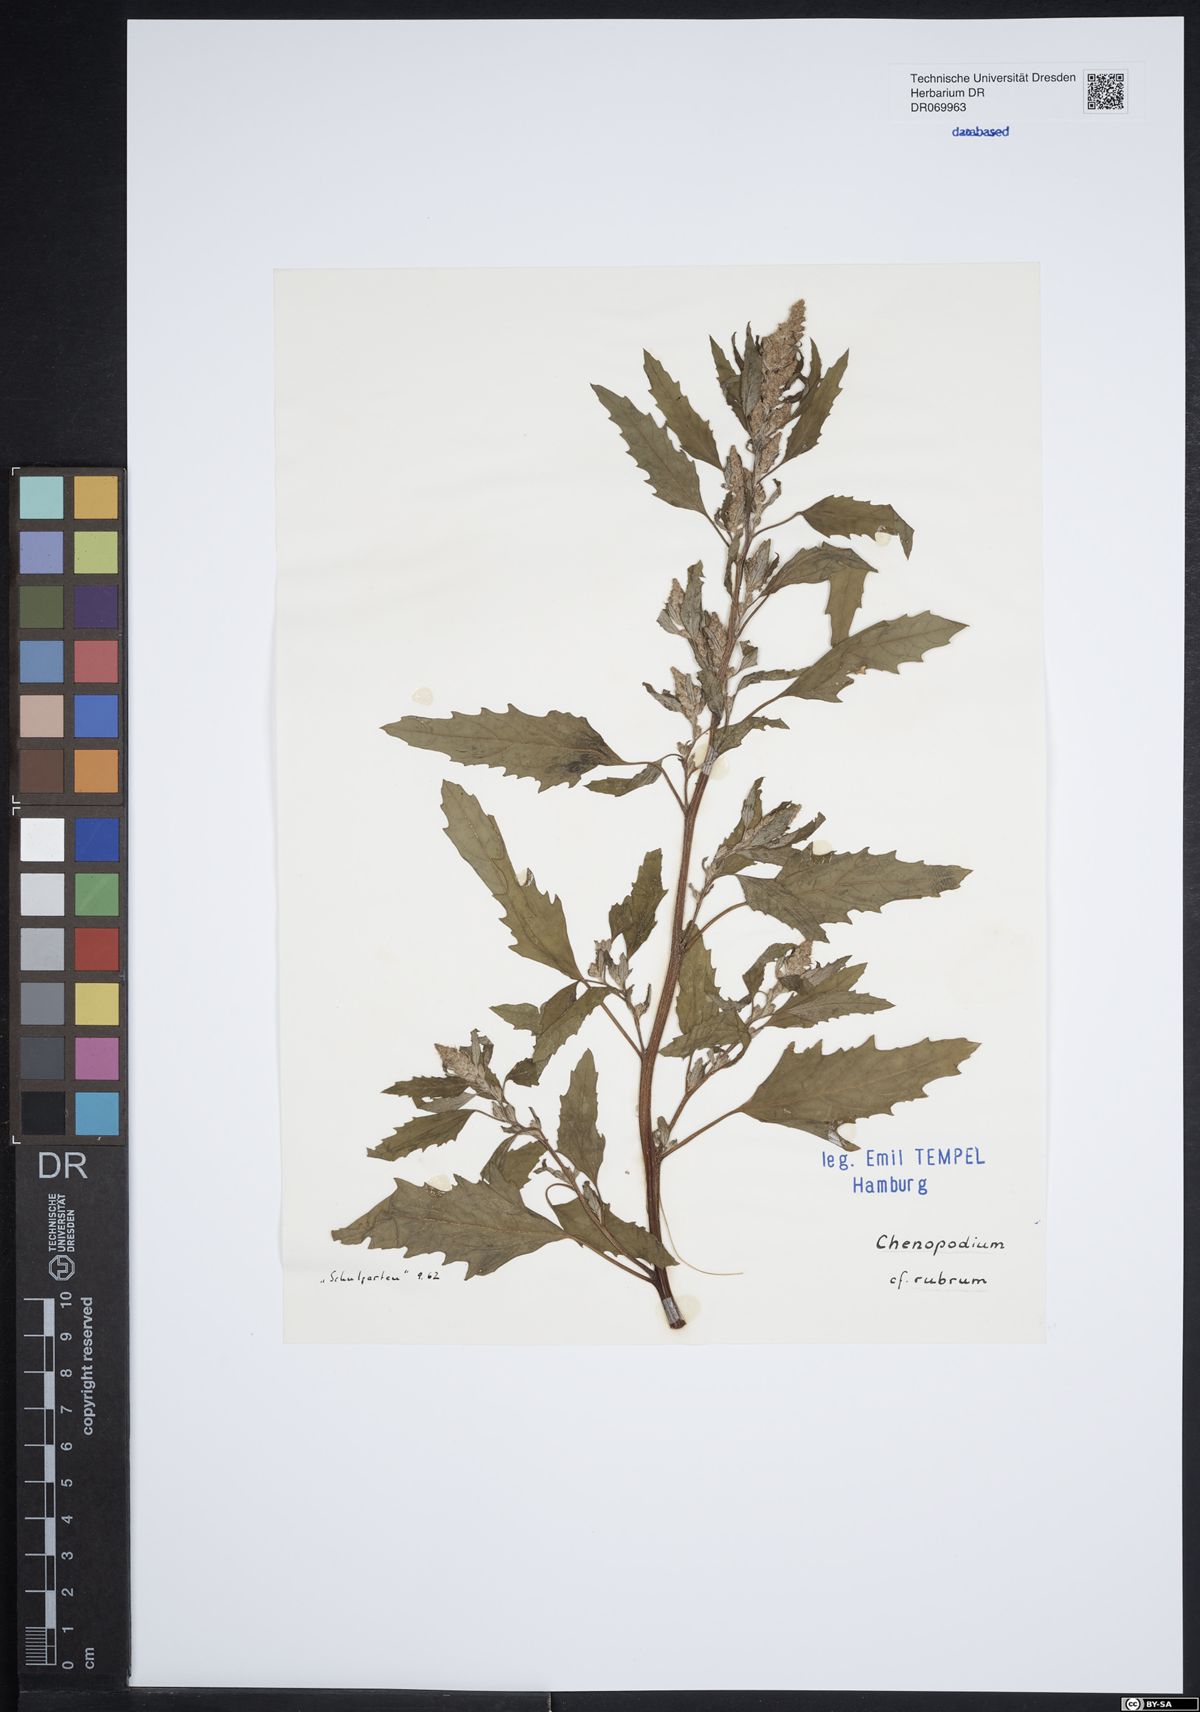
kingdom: Plantae
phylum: Tracheophyta
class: Magnoliopsida
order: Caryophyllales
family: Amaranthaceae
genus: Oxybasis
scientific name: Oxybasis rubra
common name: Red goosefoot
